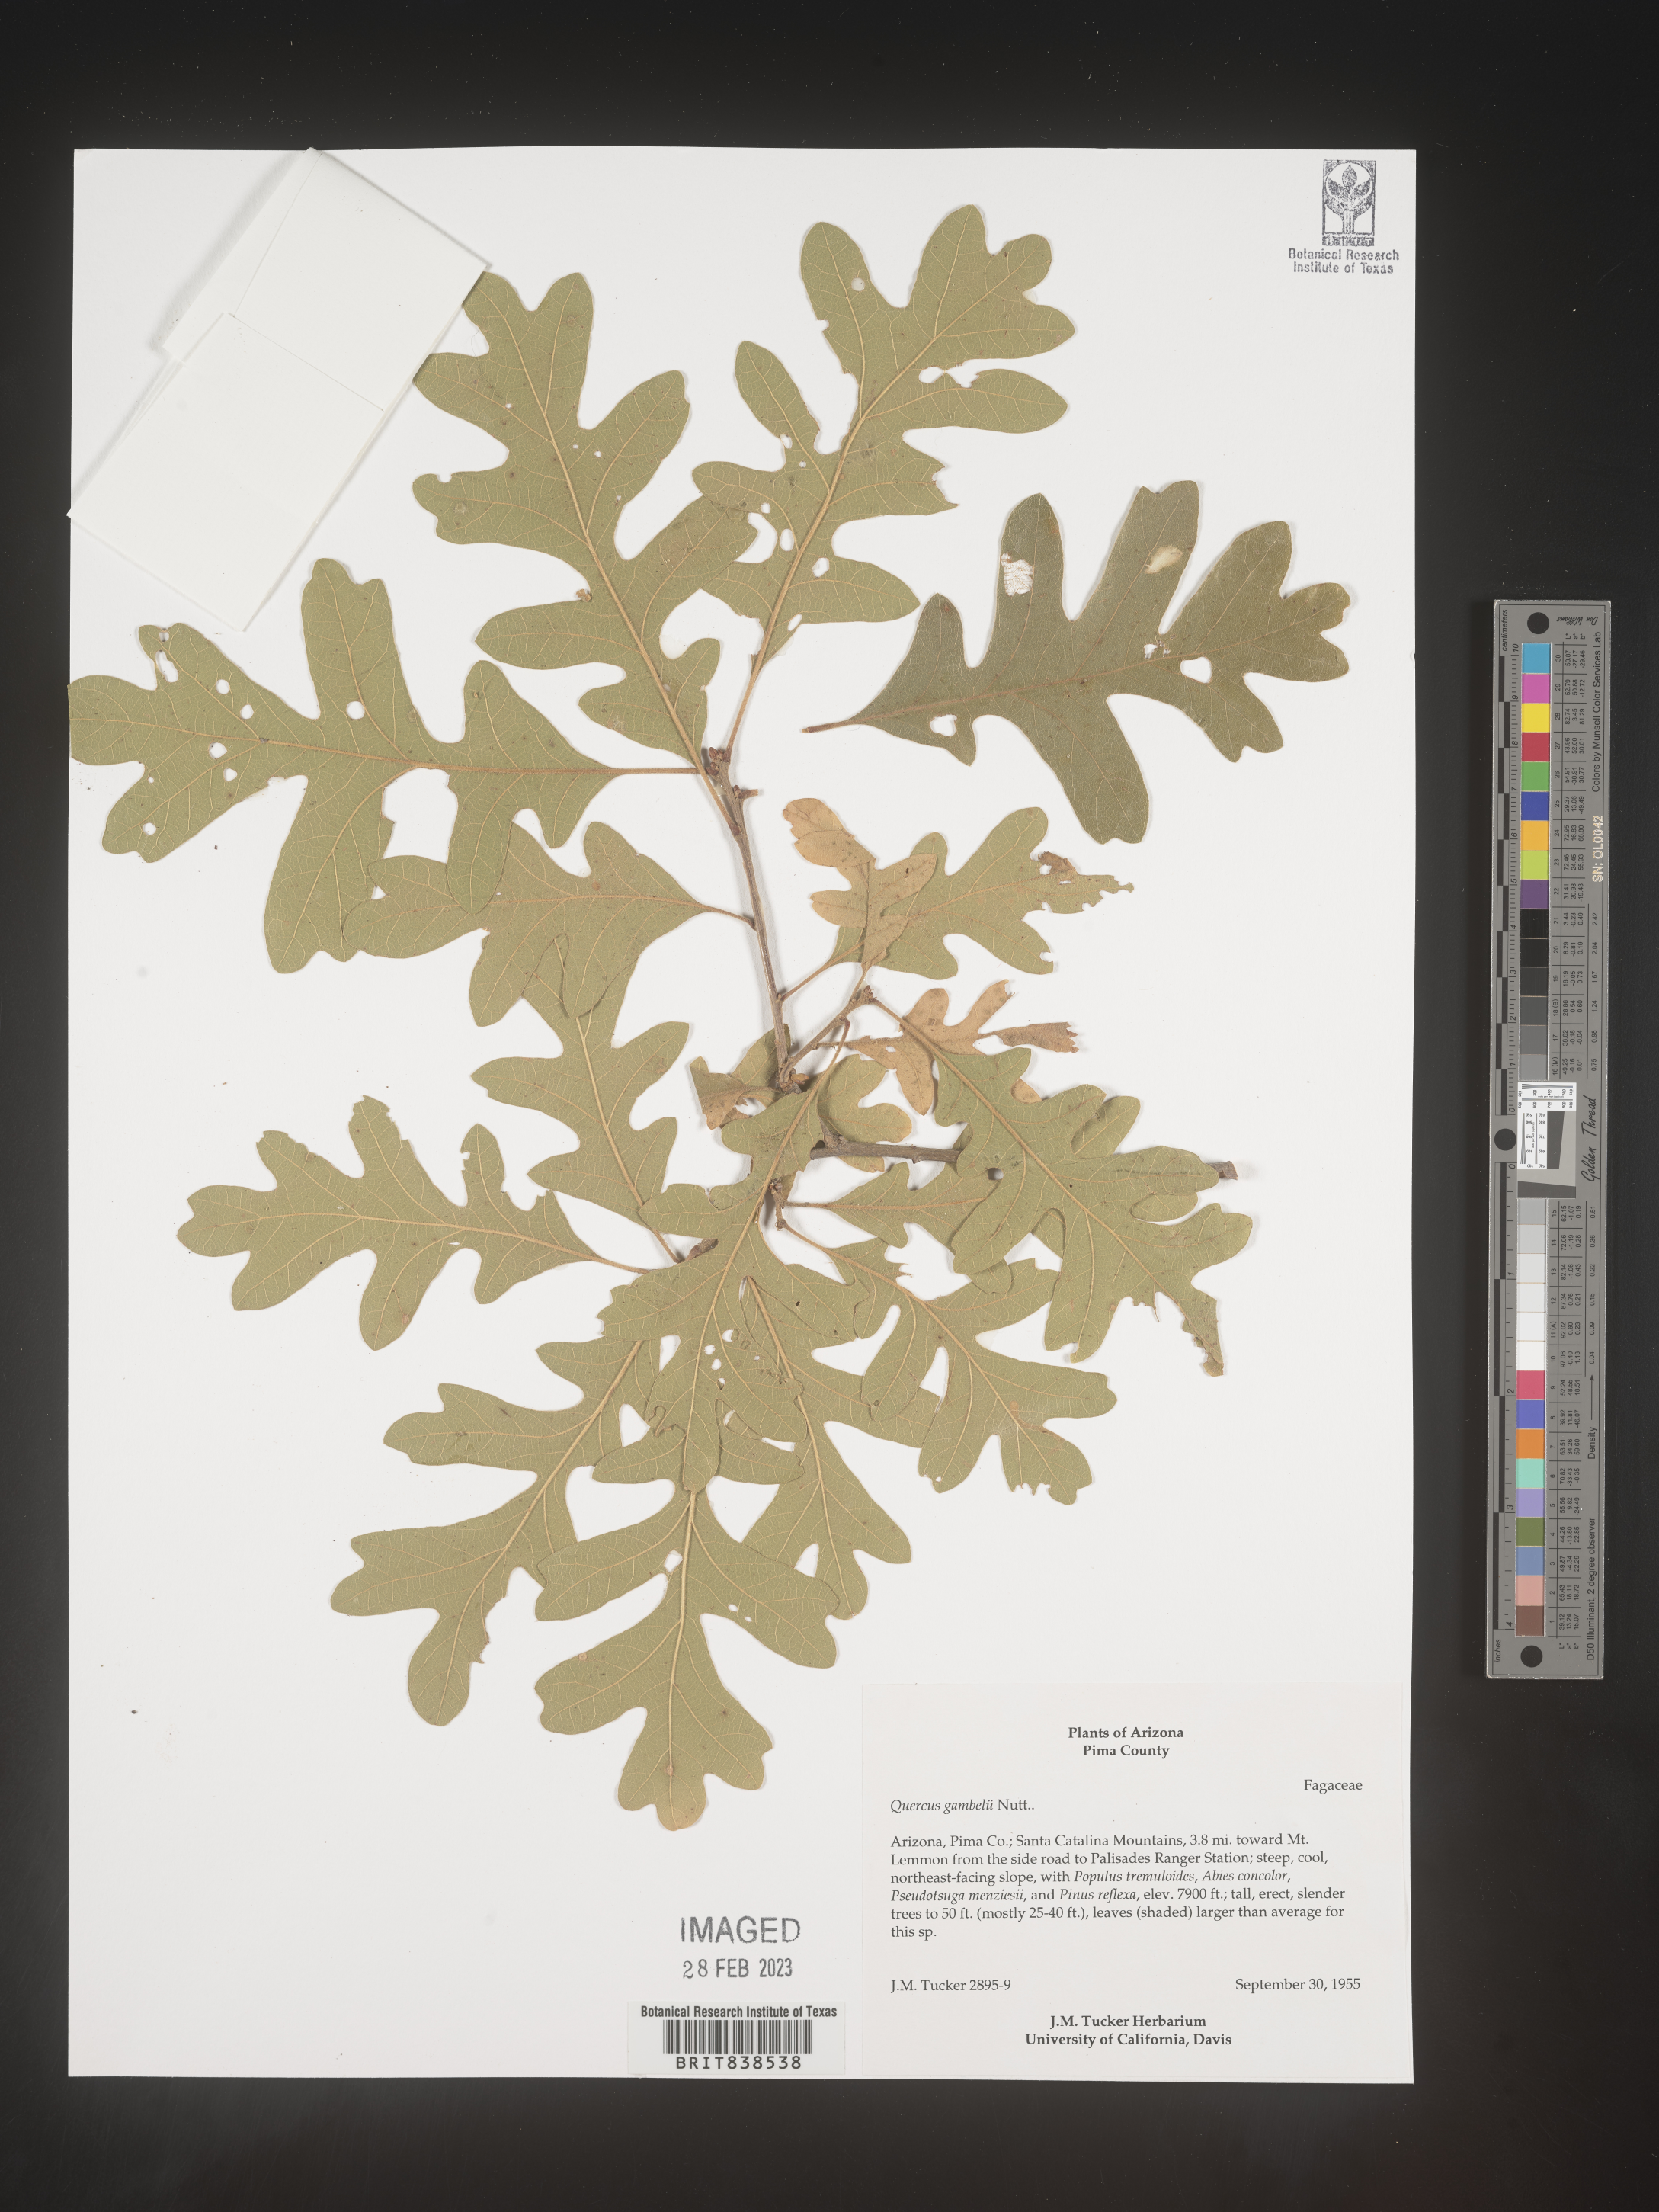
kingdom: Plantae
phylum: Tracheophyta
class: Magnoliopsida
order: Fagales
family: Fagaceae
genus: Quercus
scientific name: Quercus gambelii
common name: Gambel oak
